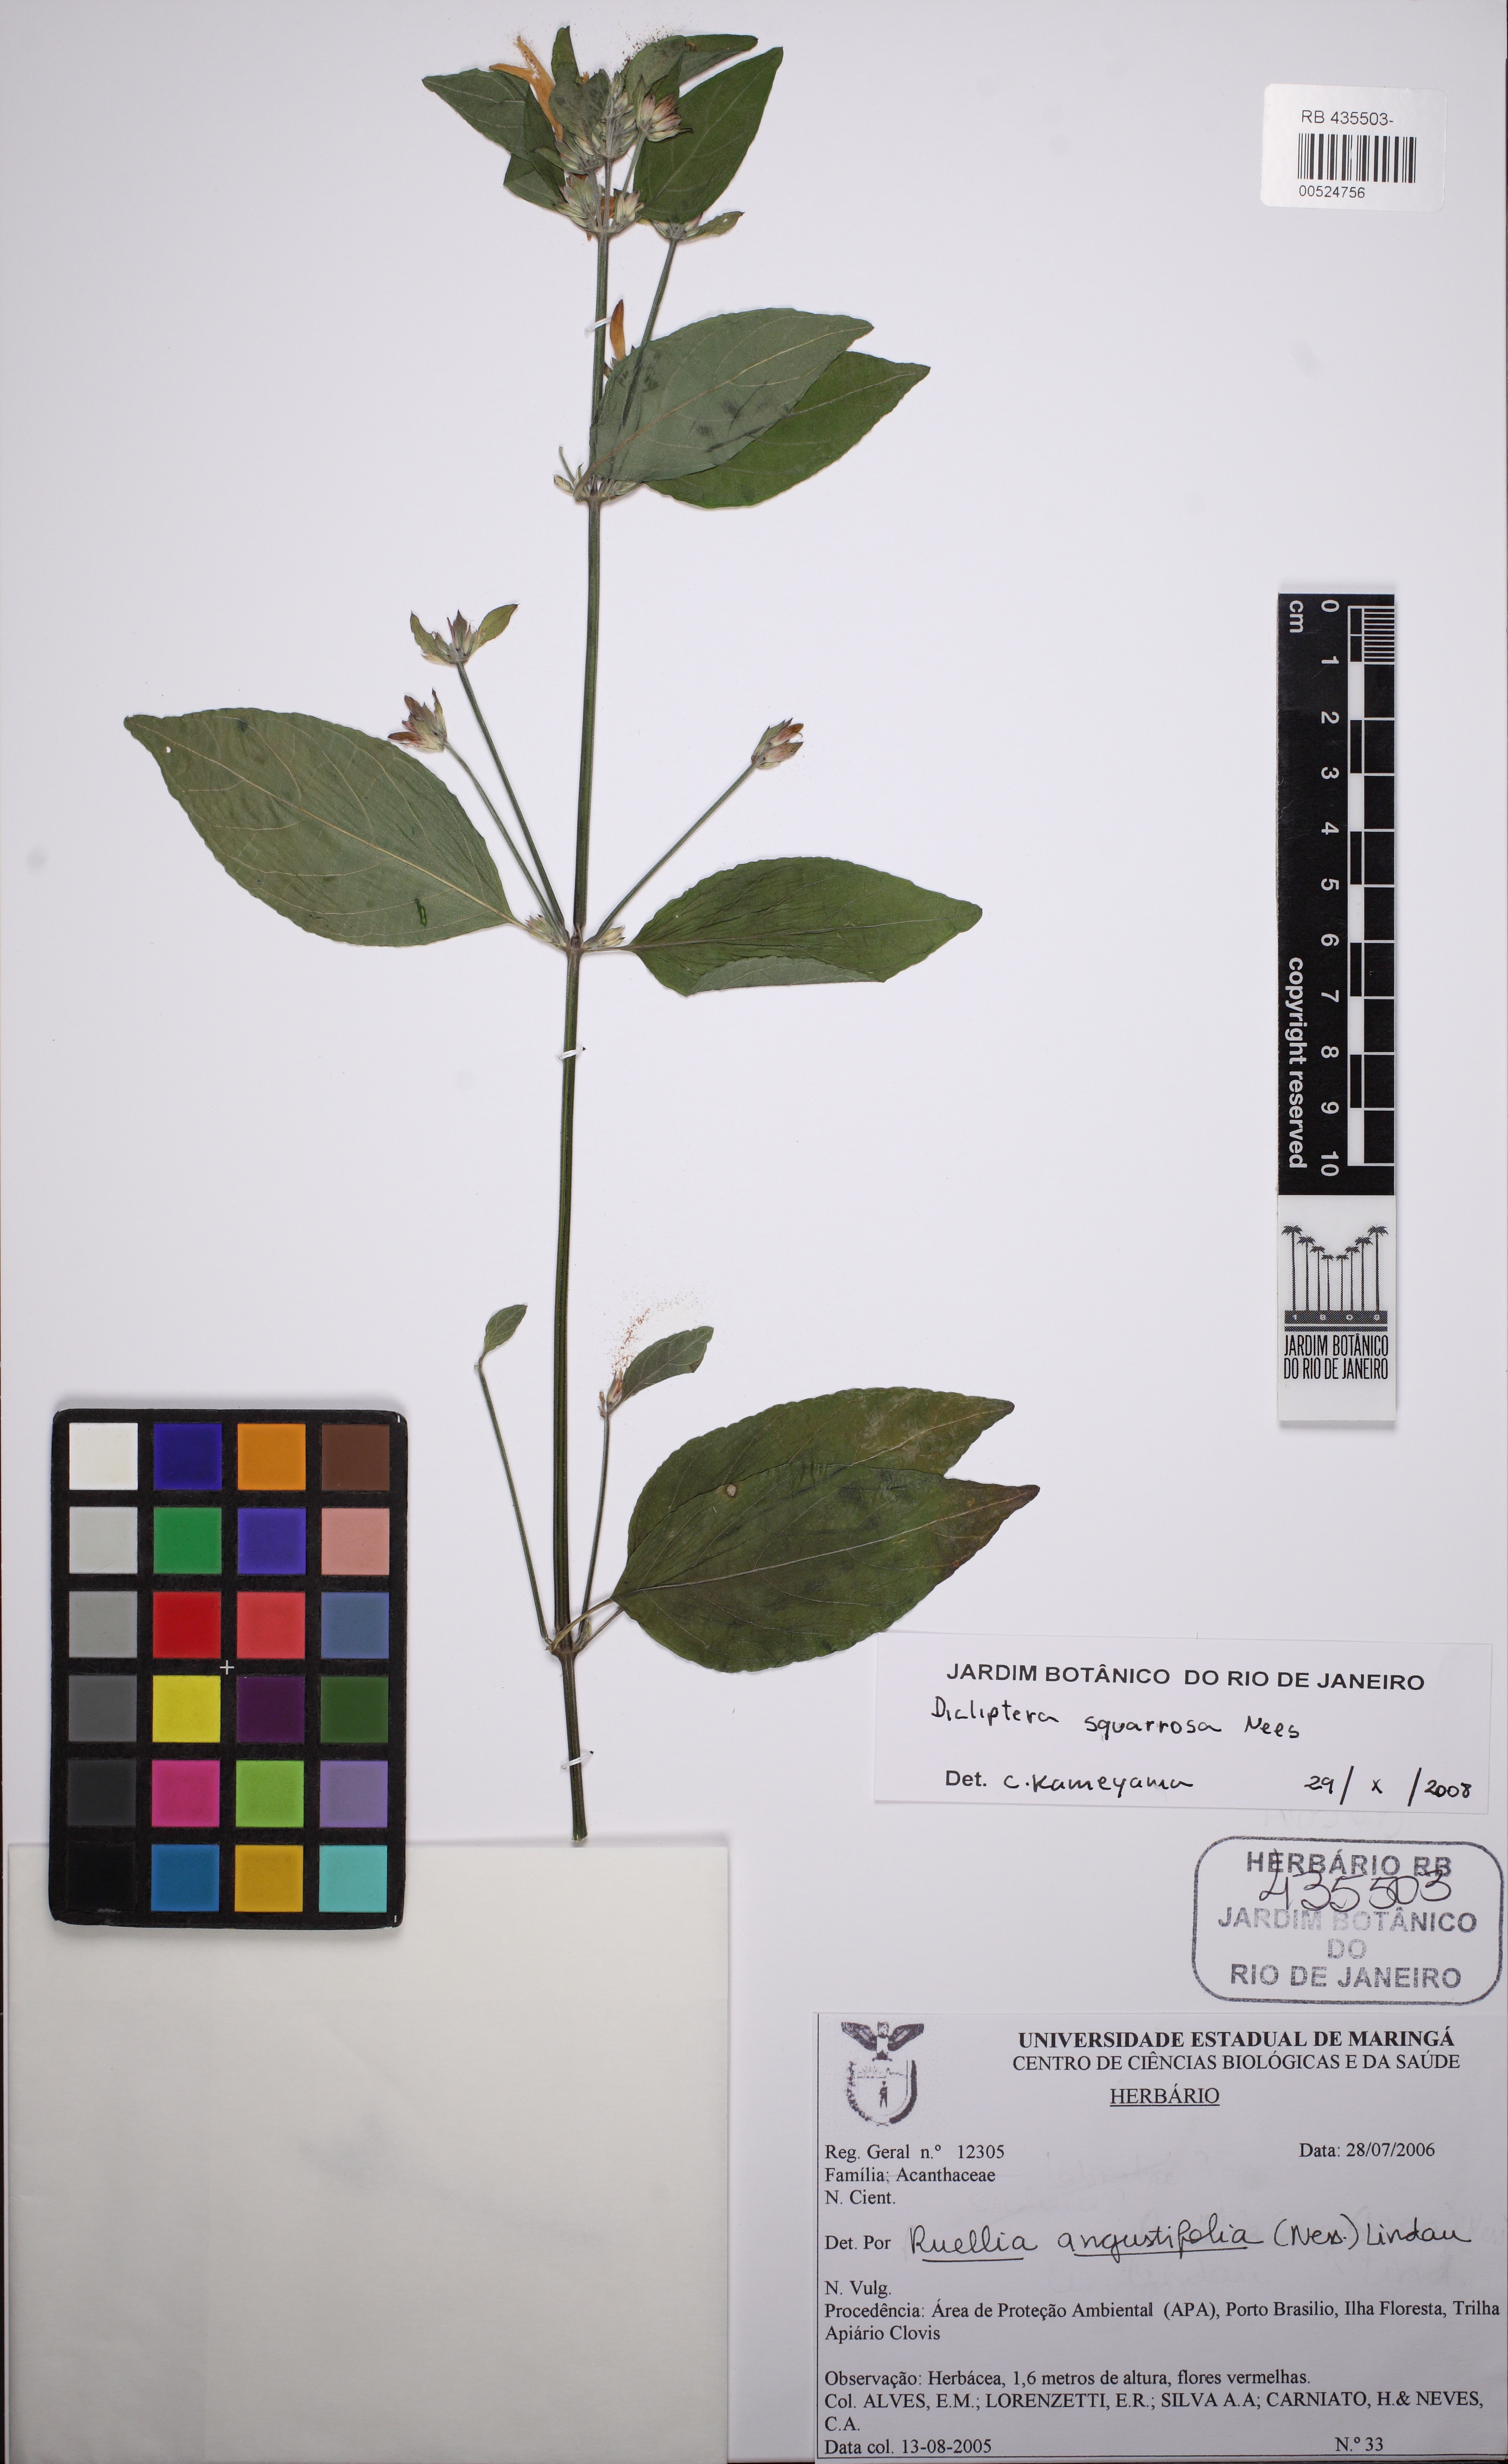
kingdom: Plantae
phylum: Tracheophyta
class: Magnoliopsida
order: Lamiales
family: Acanthaceae
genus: Dicliptera
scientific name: Dicliptera squarrosa
